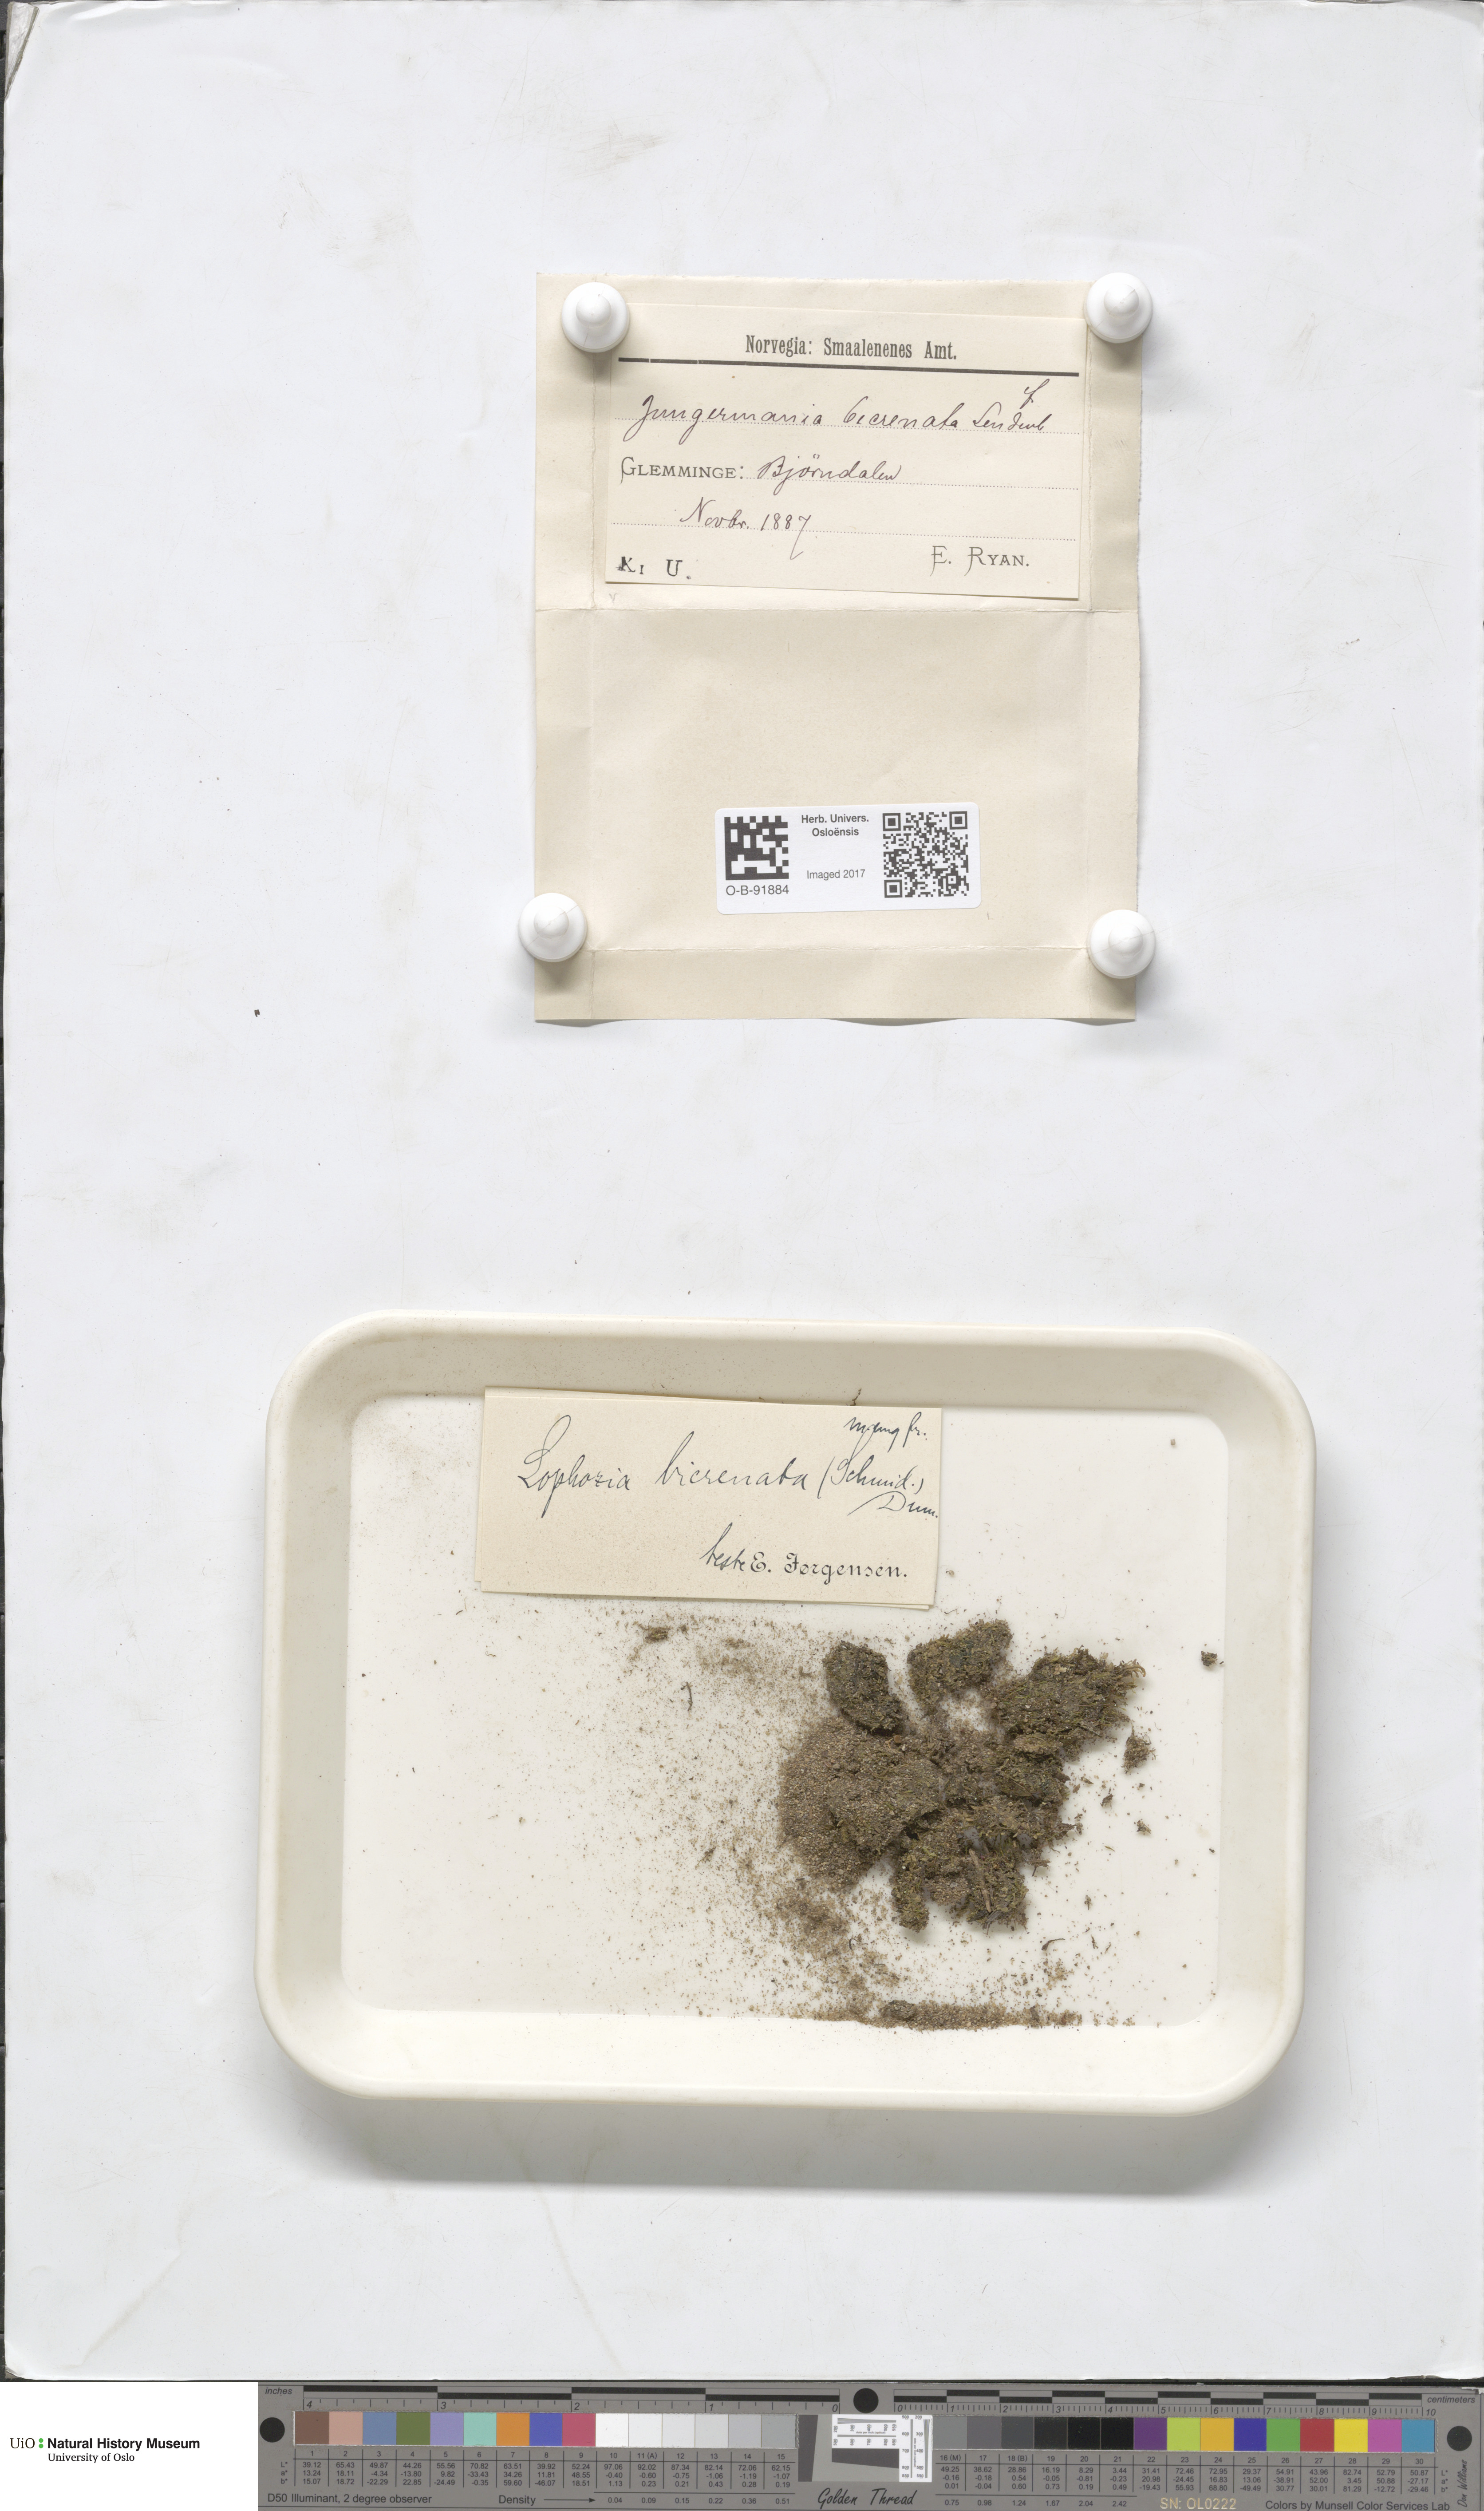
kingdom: Plantae
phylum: Marchantiophyta
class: Jungermanniopsida
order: Jungermanniales
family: Anastrophyllaceae
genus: Isopaches
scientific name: Isopaches bicrenatus
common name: Lesser notchwort
